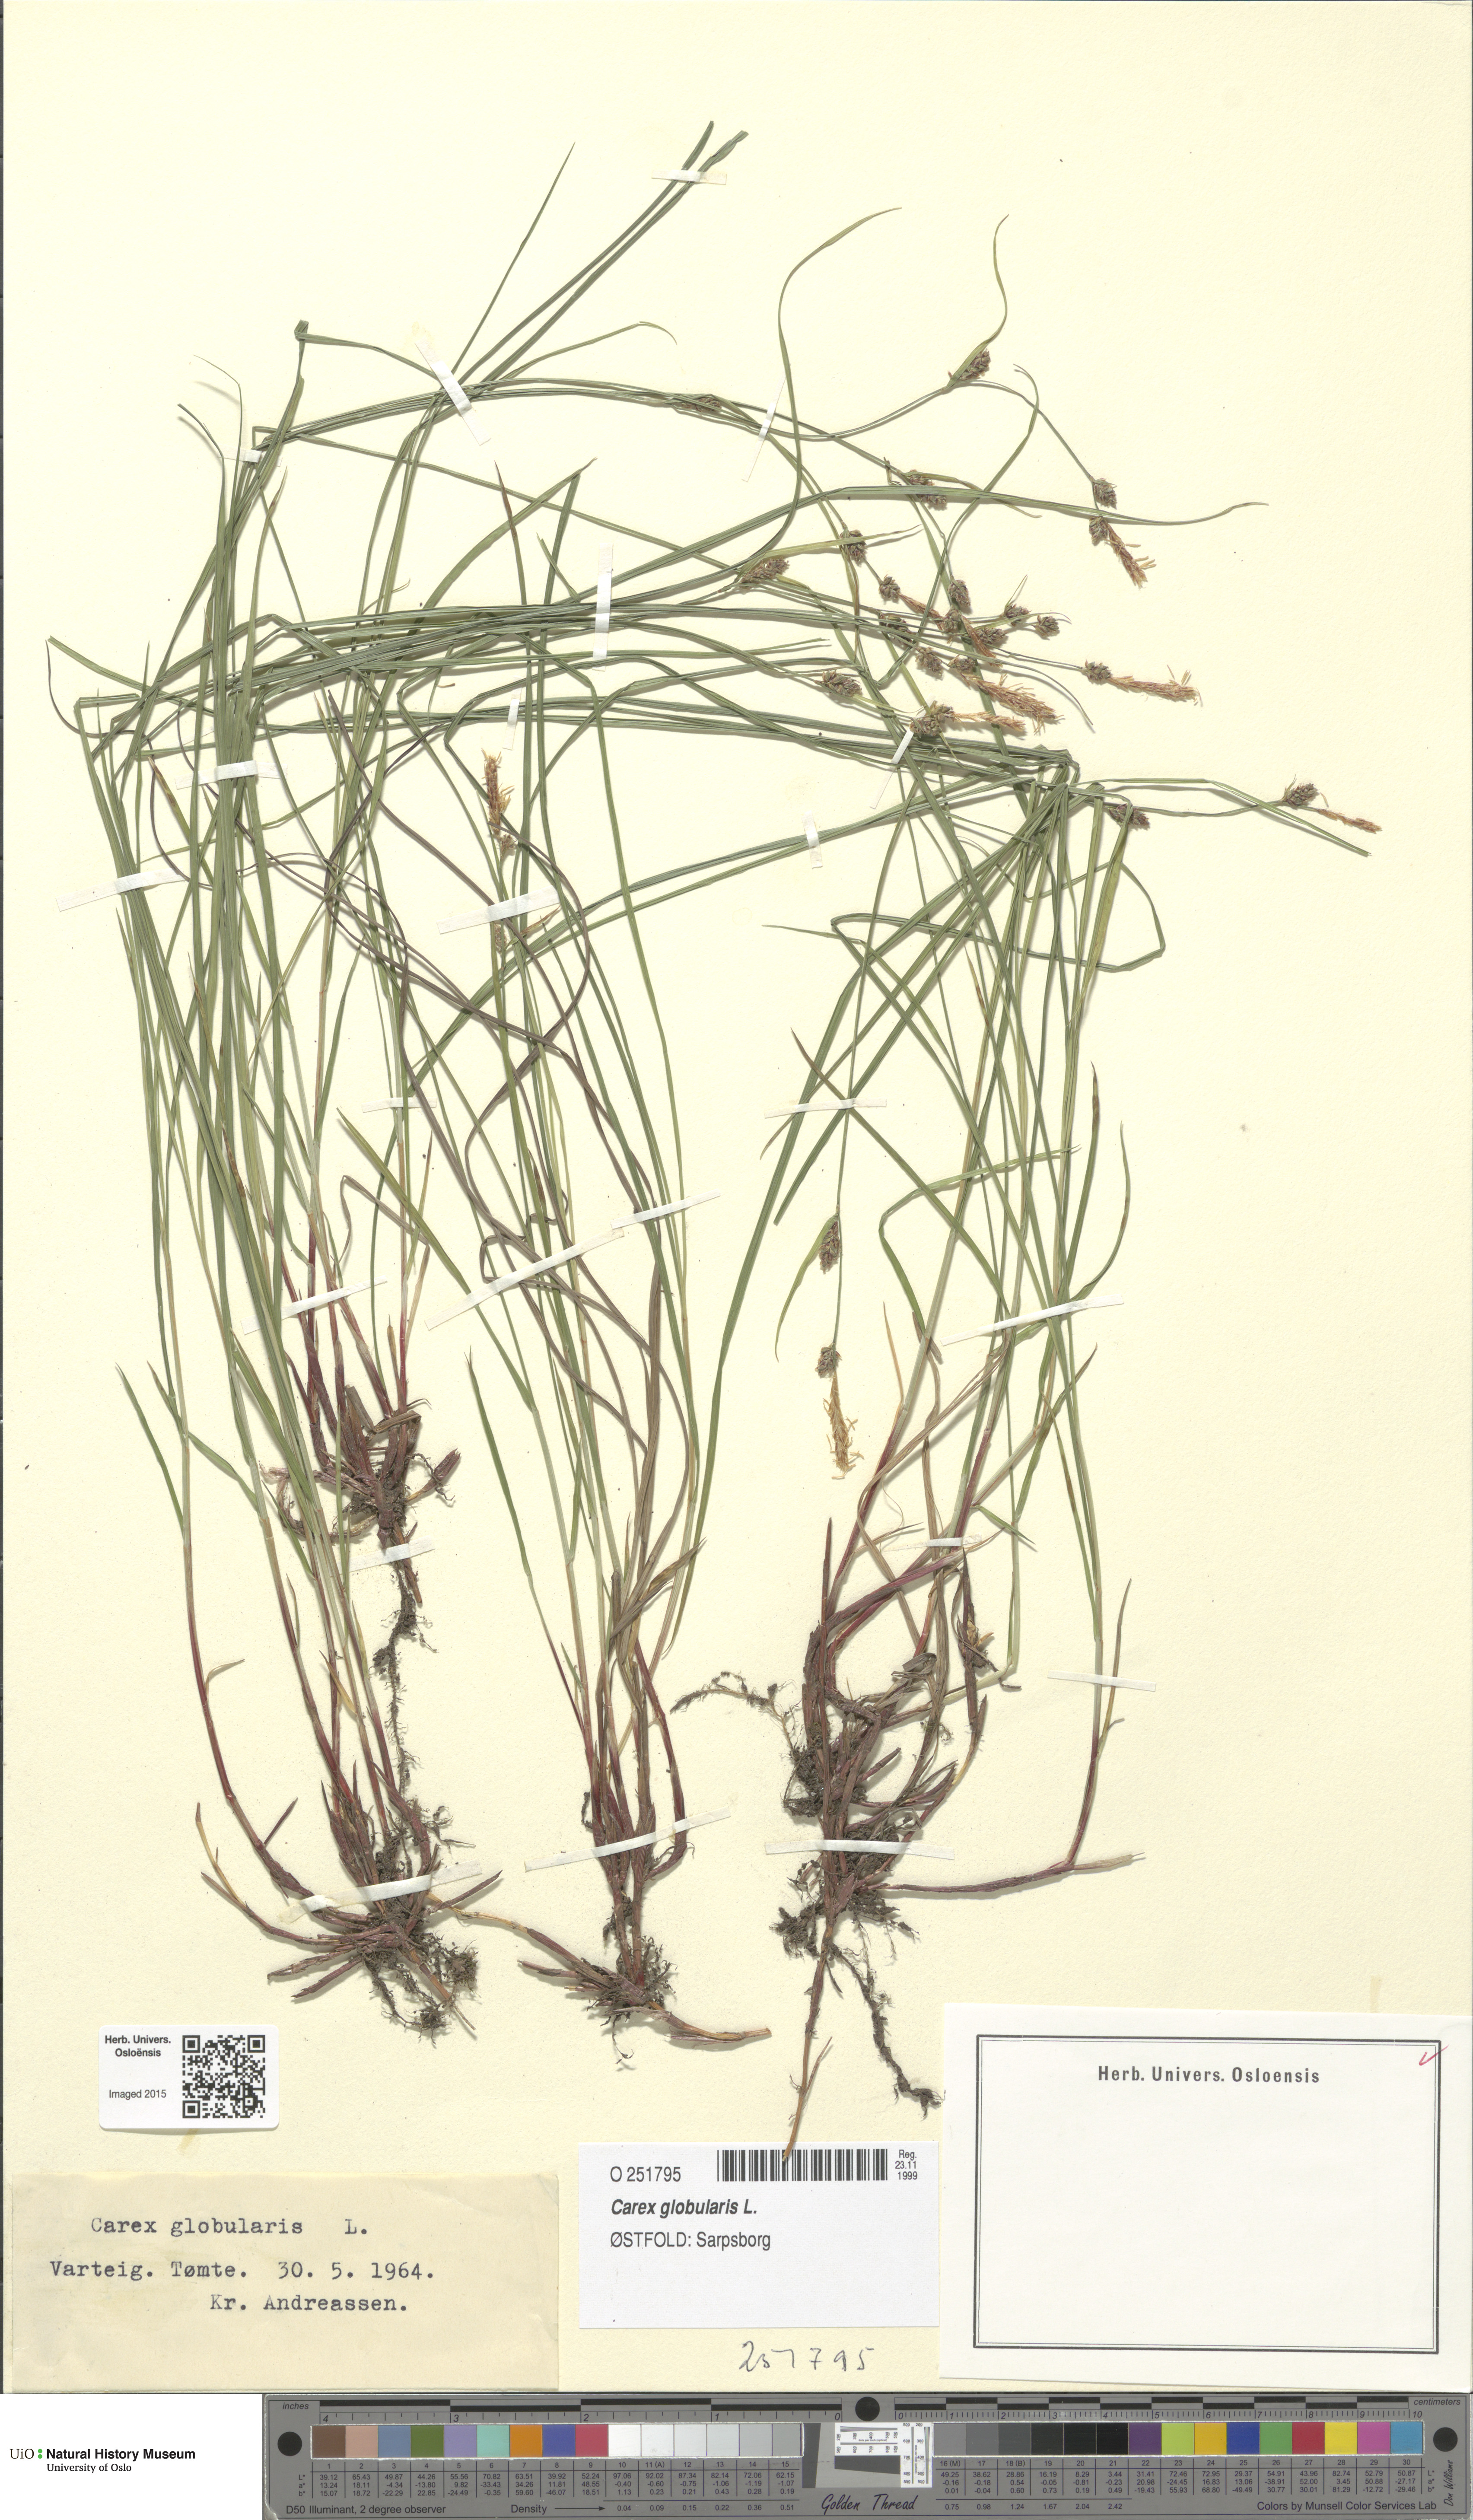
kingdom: Plantae
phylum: Tracheophyta
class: Liliopsida
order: Poales
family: Cyperaceae
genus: Carex
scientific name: Carex globularis
